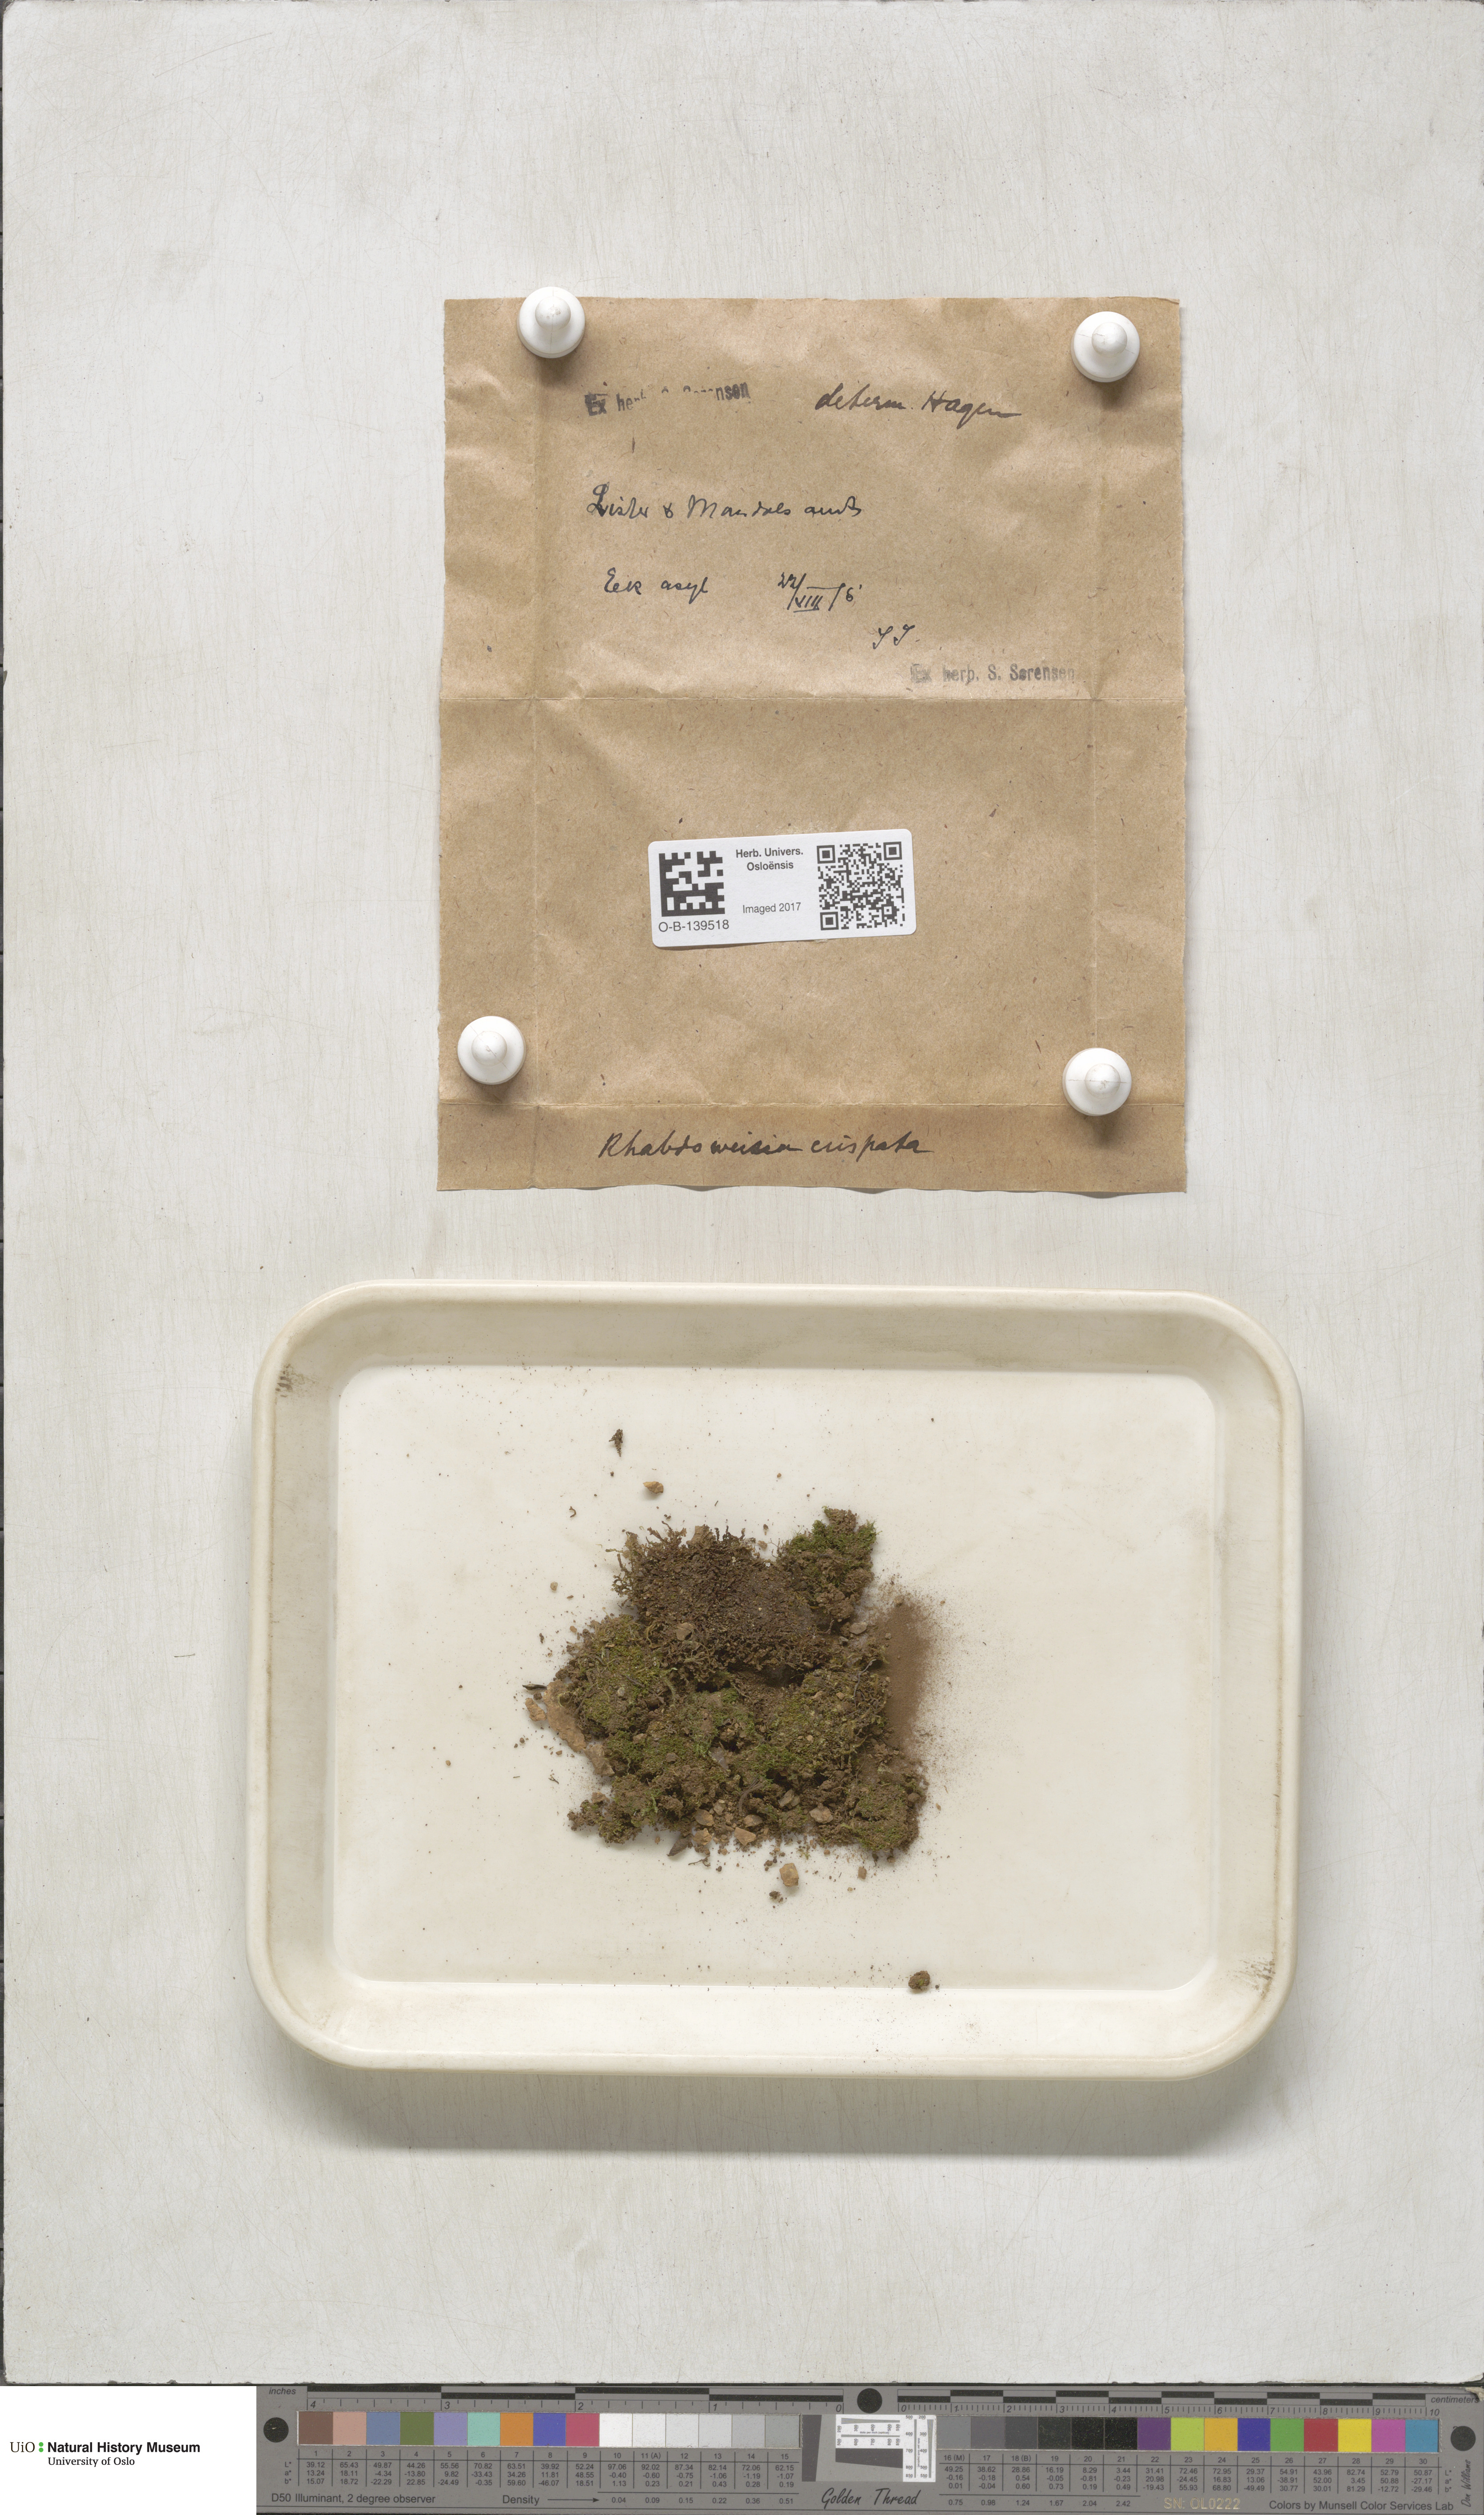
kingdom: Plantae
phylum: Bryophyta
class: Bryopsida
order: Dicranales
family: Rhabdoweisiaceae
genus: Rhabdoweisia
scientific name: Rhabdoweisia crispata
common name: Fine-toothed streak moss
